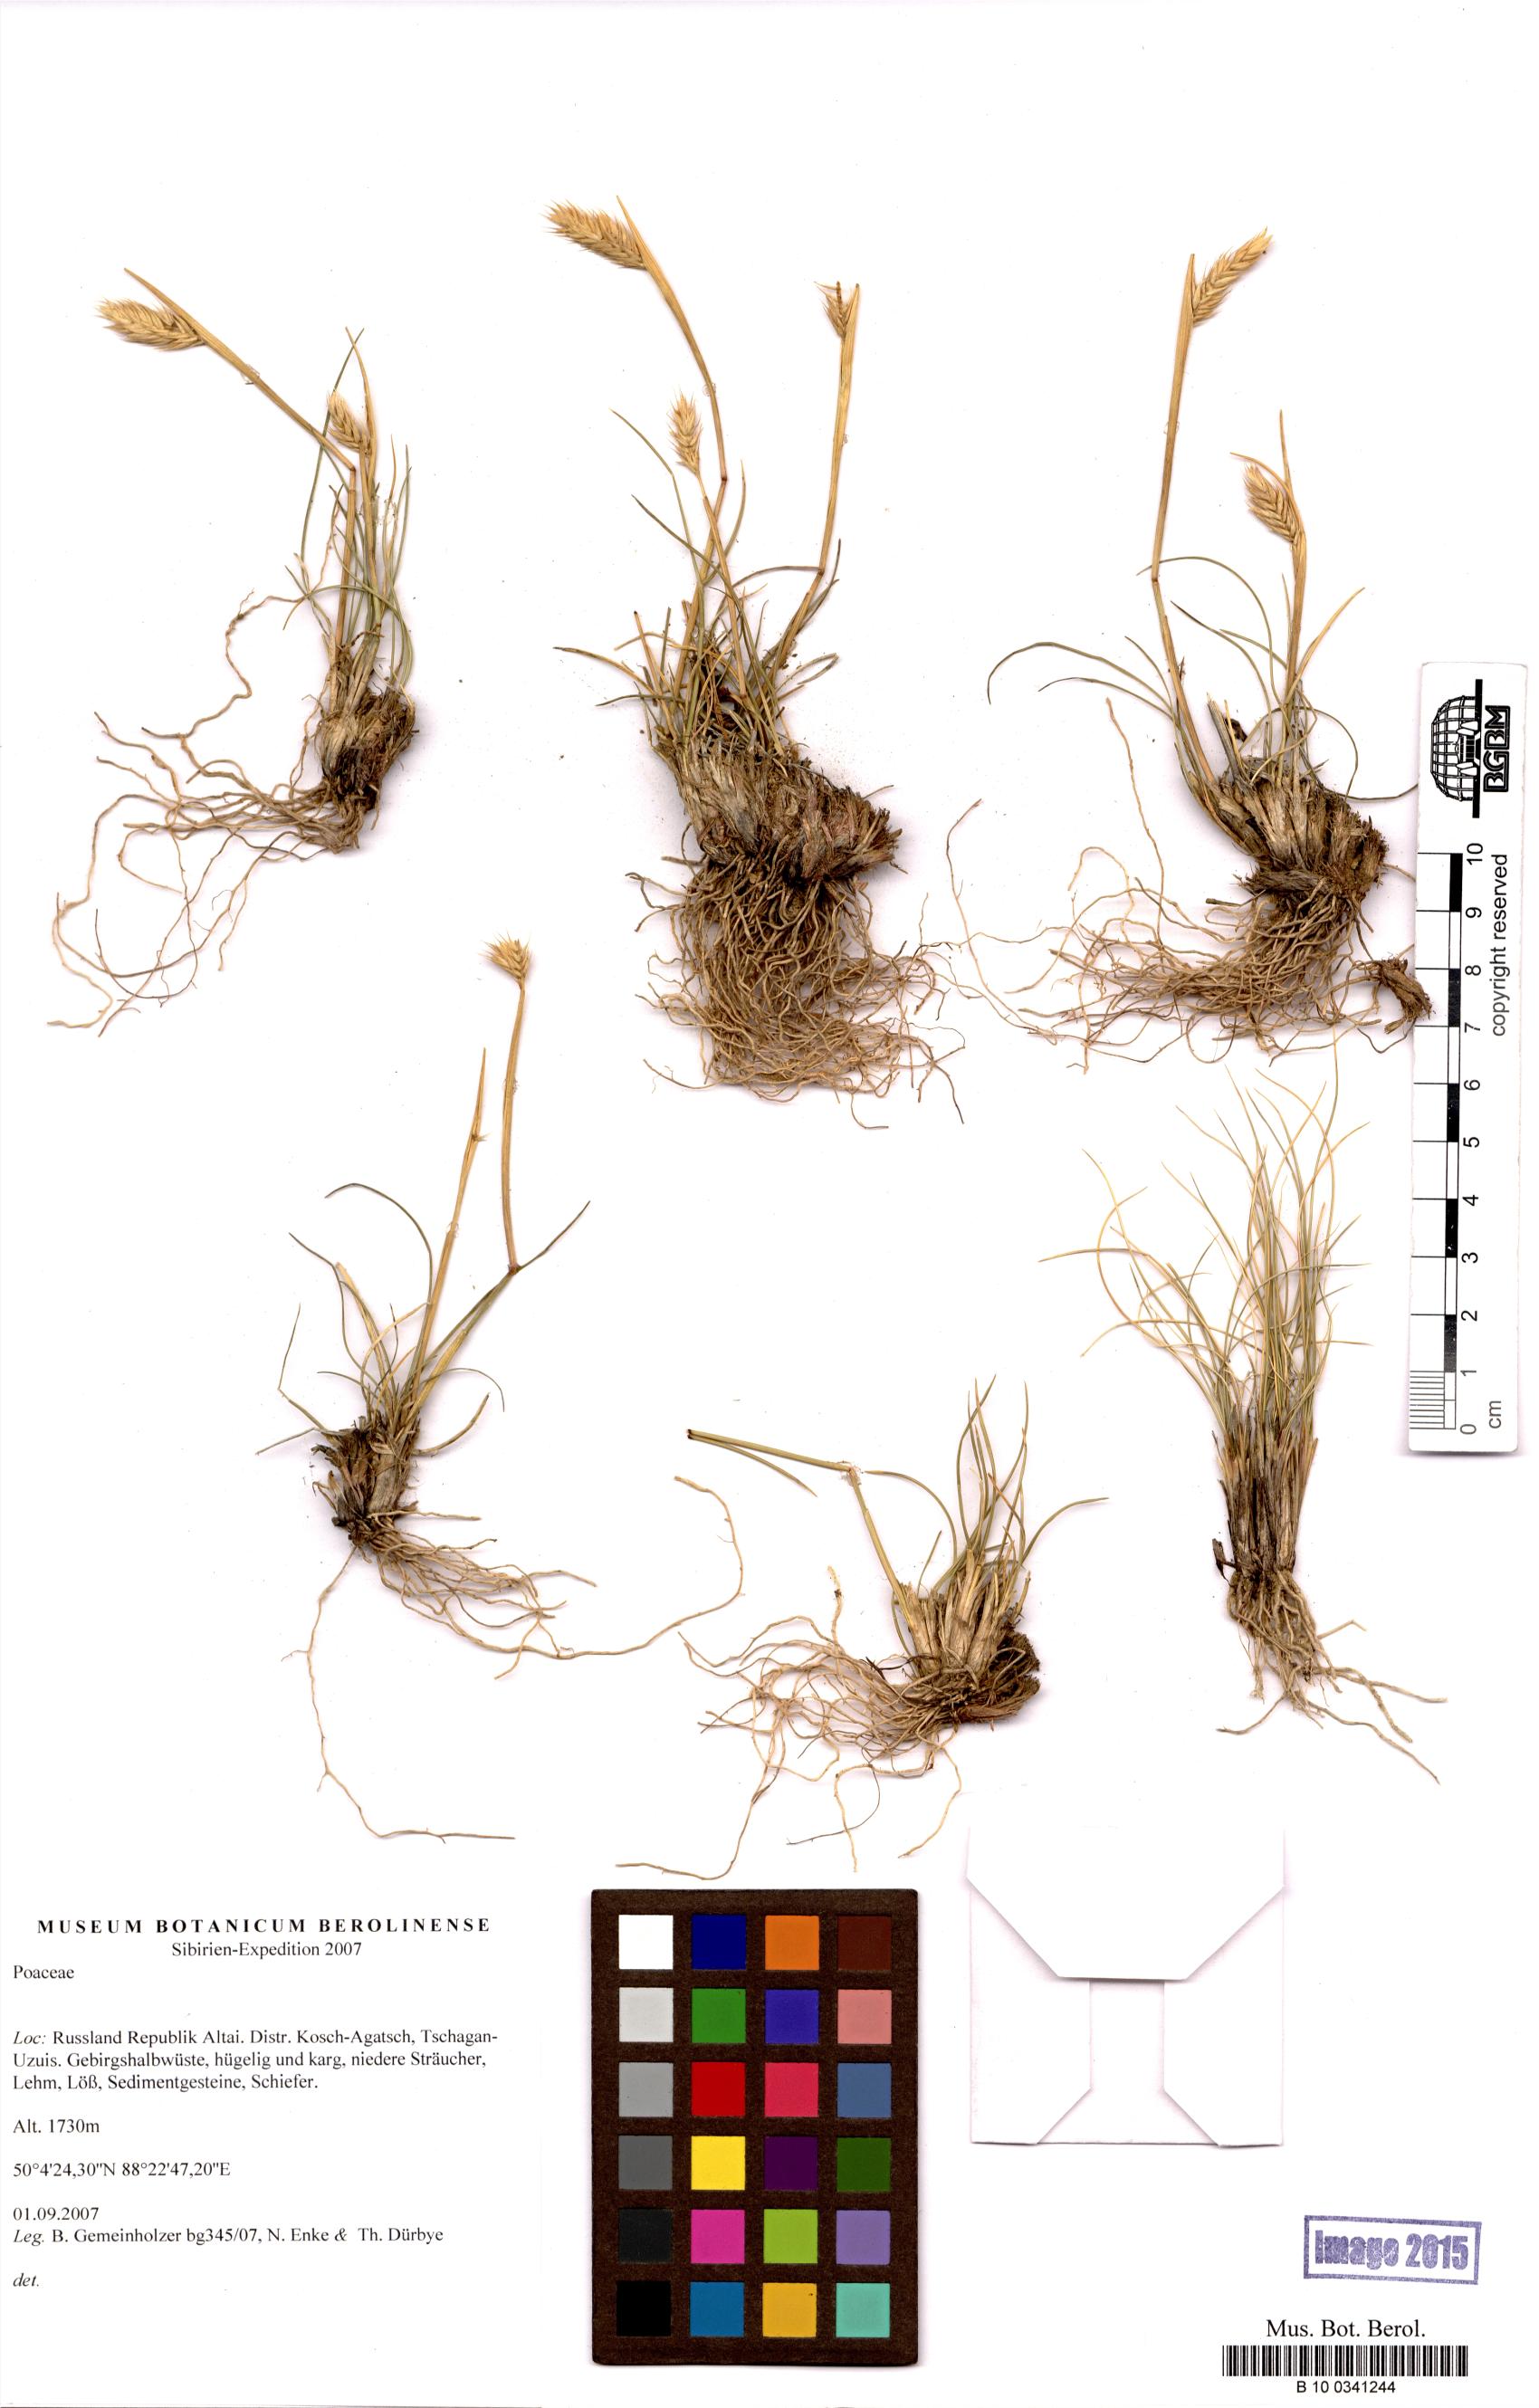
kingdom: Plantae
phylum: Tracheophyta
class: Liliopsida
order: Poales
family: Poaceae
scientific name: Poaceae
